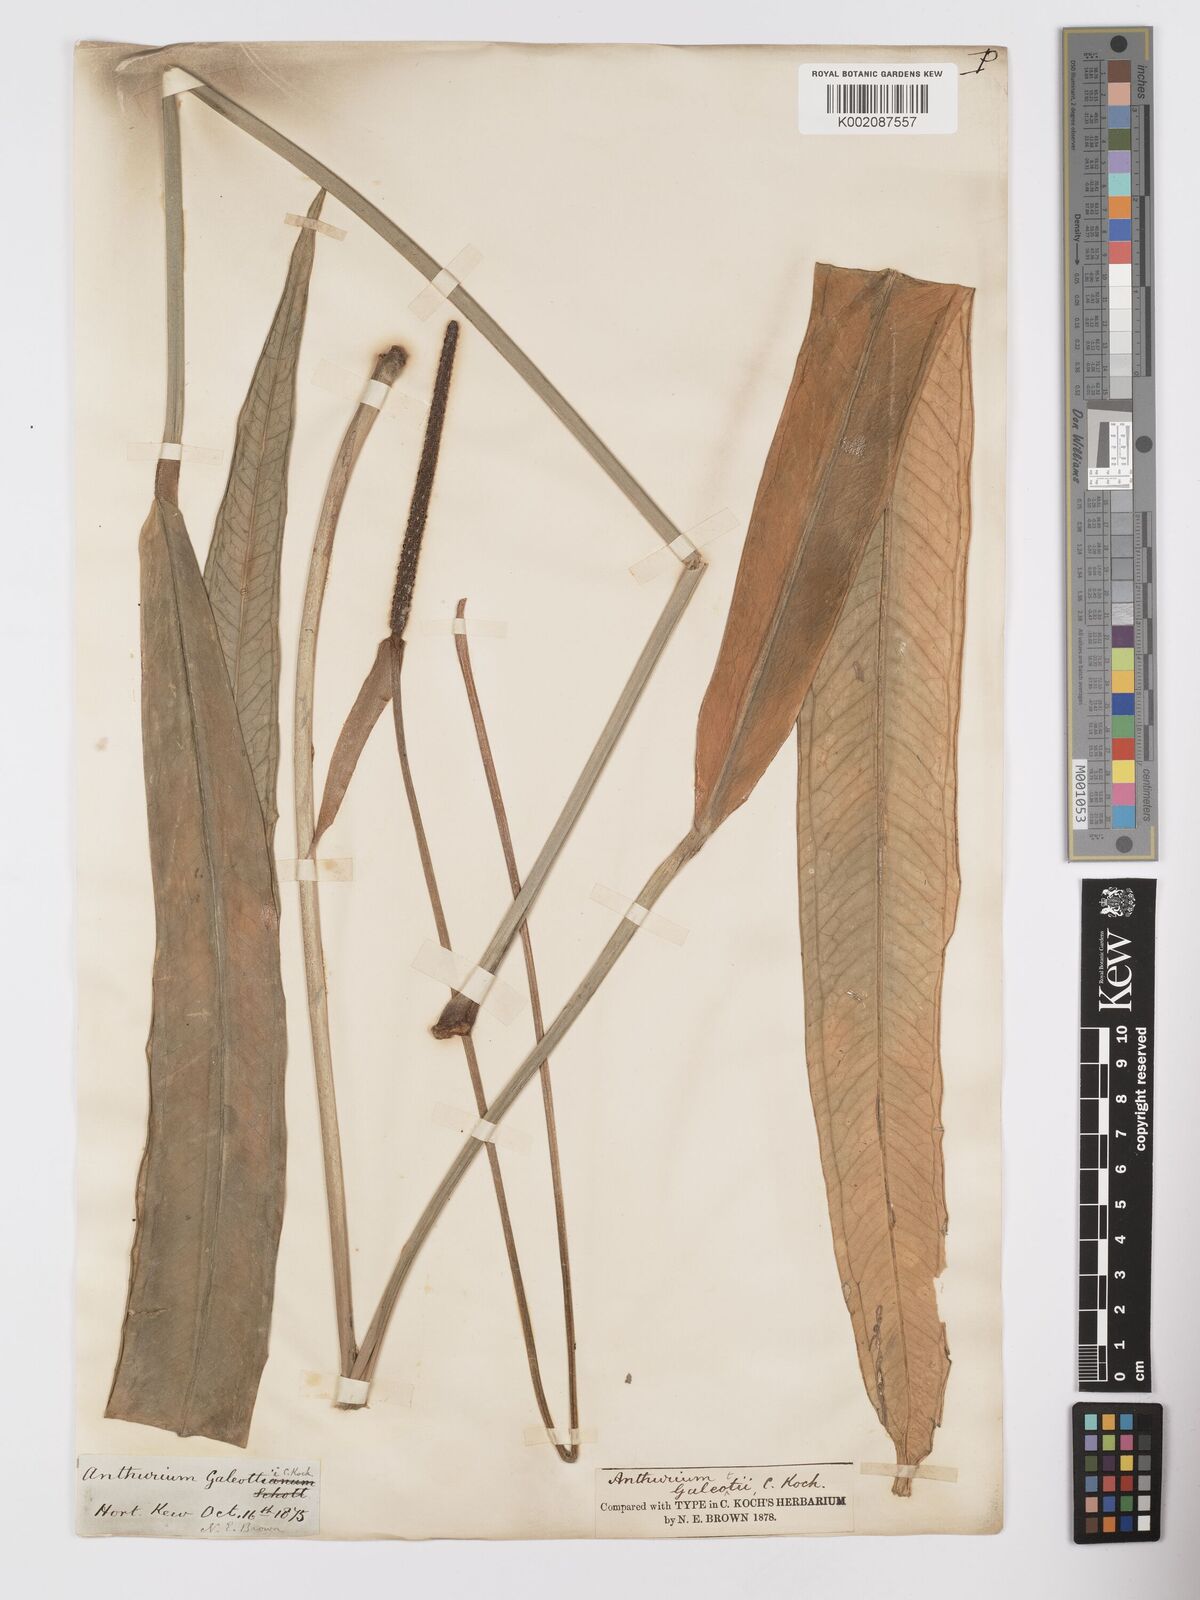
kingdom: Plantae
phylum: Tracheophyta
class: Liliopsida
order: Alismatales
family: Araceae
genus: Anthurium
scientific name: Anthurium galeottii
